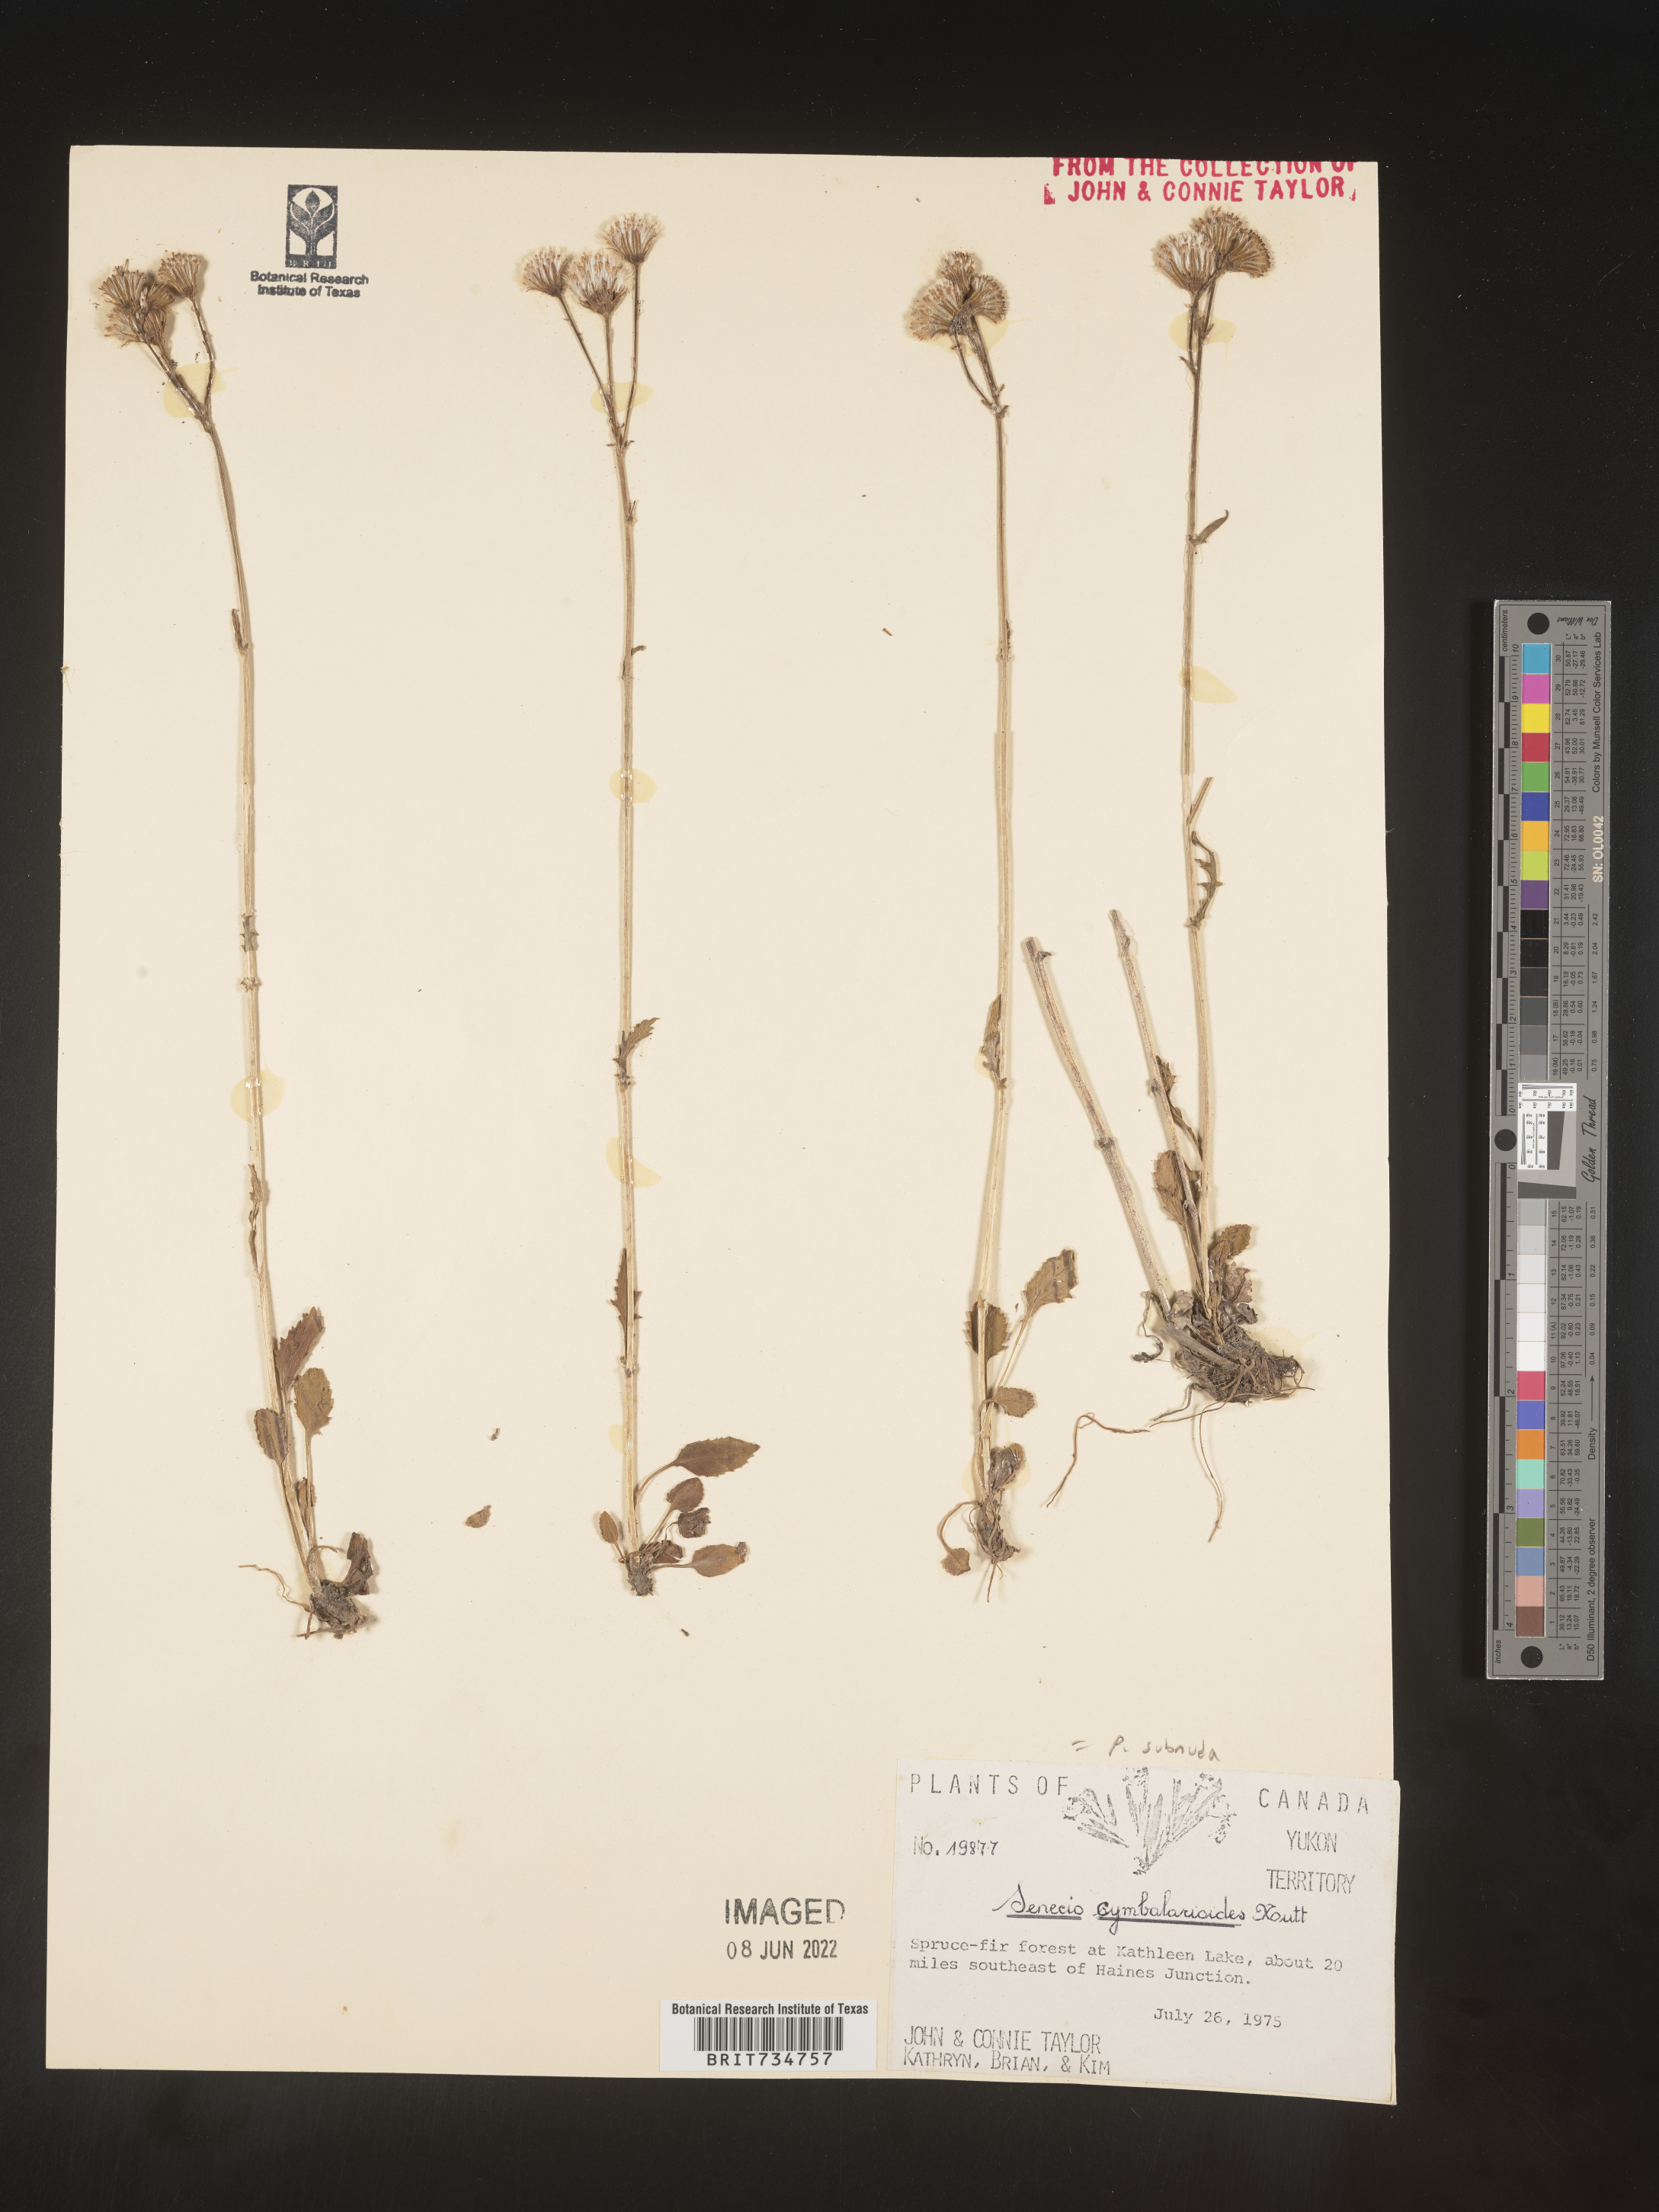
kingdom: Plantae
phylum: Tracheophyta
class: Magnoliopsida
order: Asterales
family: Asteraceae
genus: Packera
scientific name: Packera subnuda
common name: Buek's groundsel
